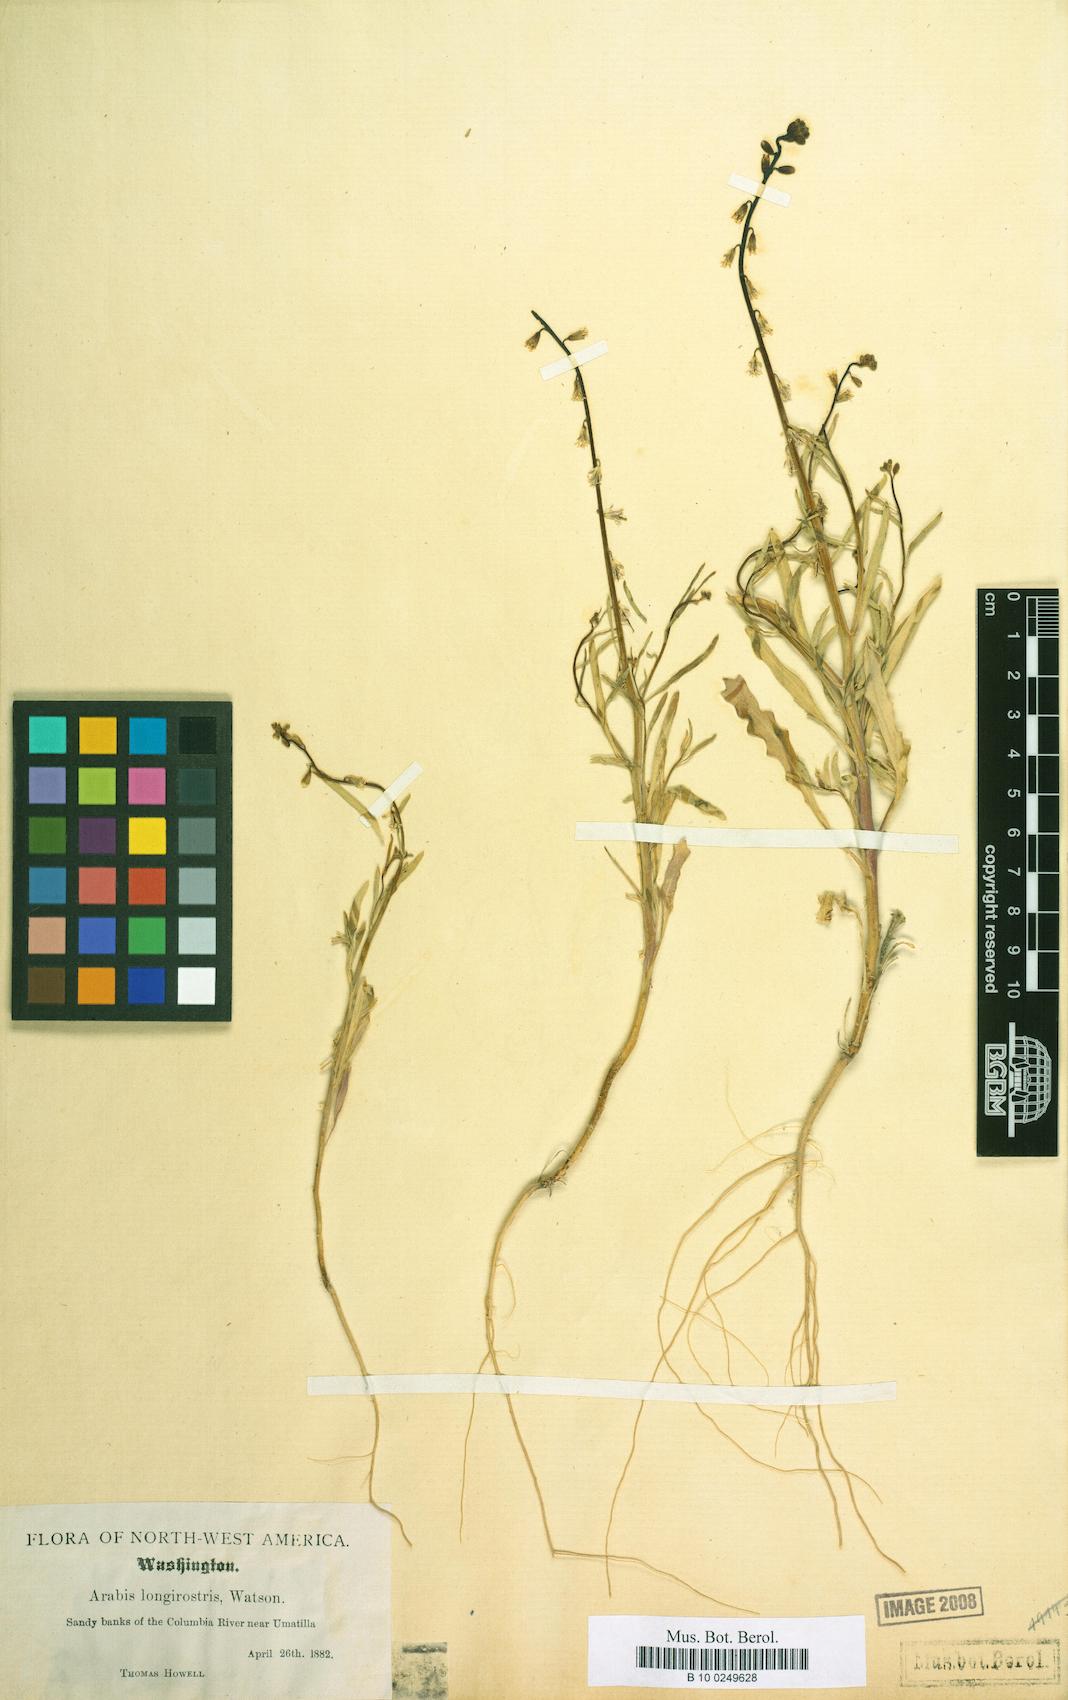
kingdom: Plantae
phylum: Tracheophyta
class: Magnoliopsida
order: Brassicales
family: Brassicaceae
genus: Streptanthus
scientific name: Streptanthus longirostris
